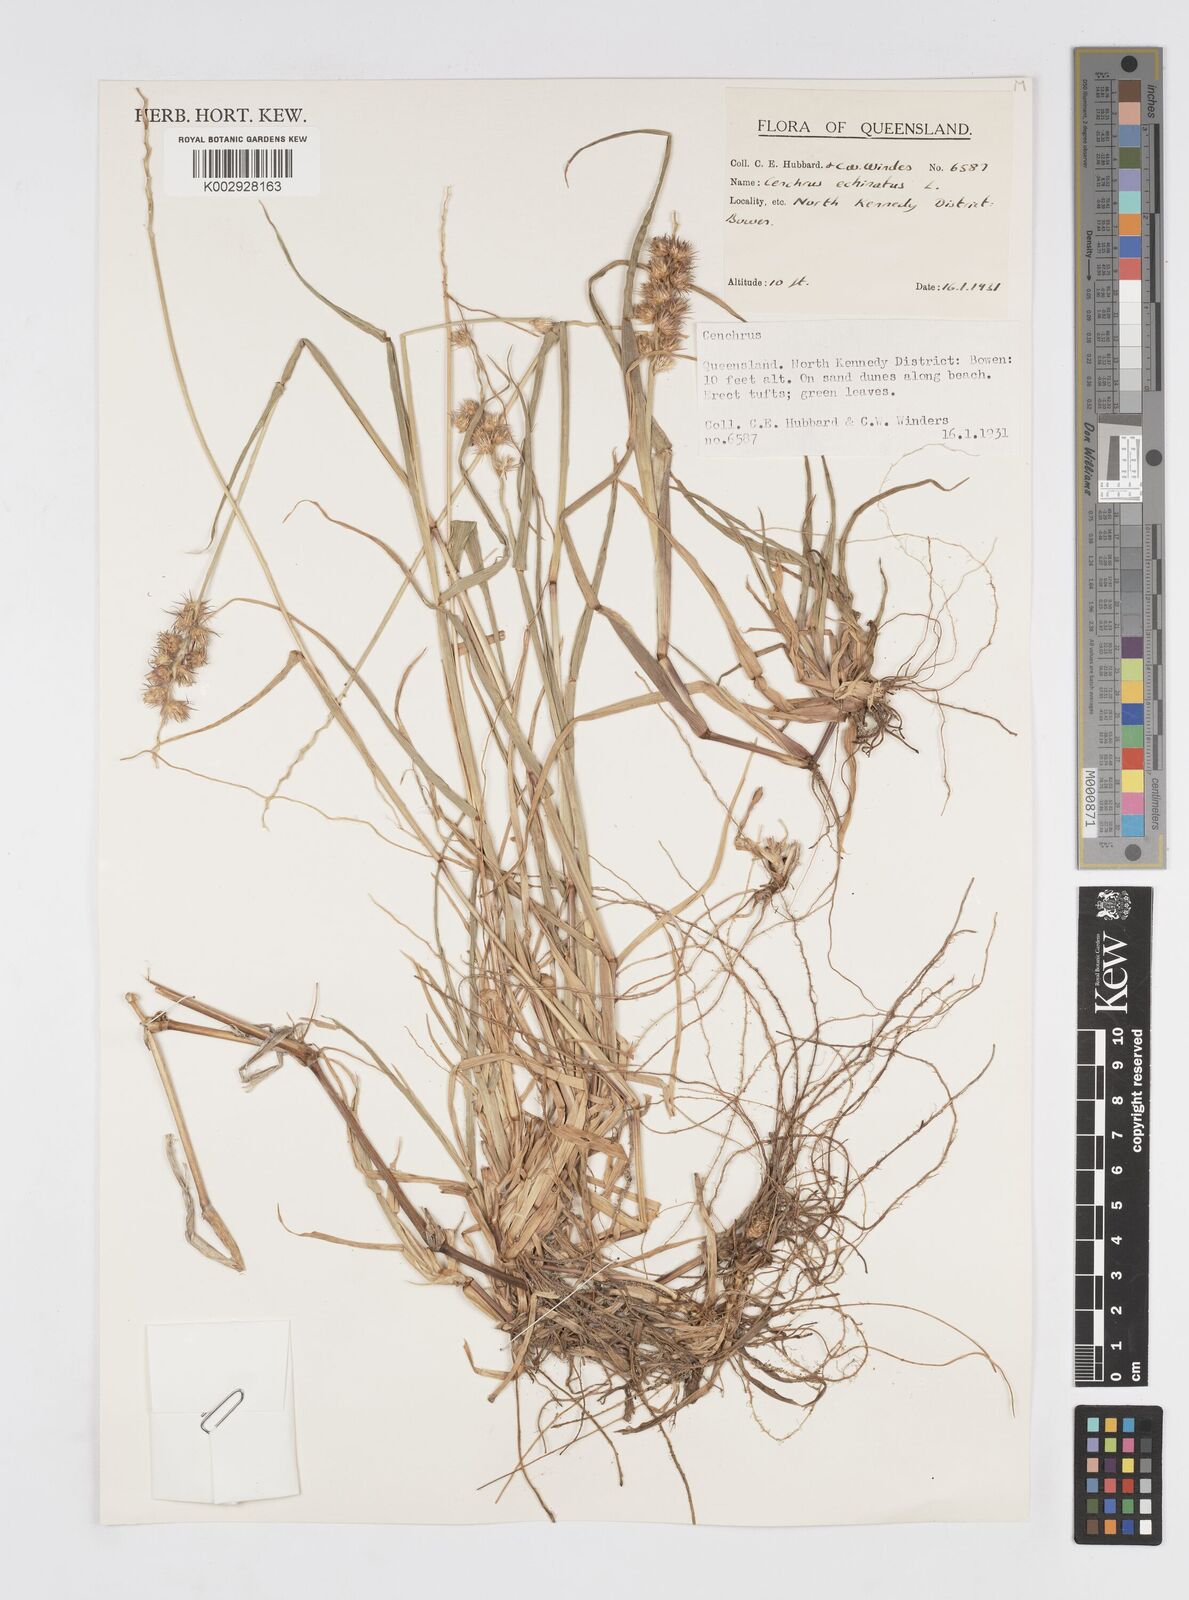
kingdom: Plantae
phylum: Tracheophyta
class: Liliopsida
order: Poales
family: Poaceae
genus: Cenchrus
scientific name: Cenchrus echinatus
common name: Southern sandbur
